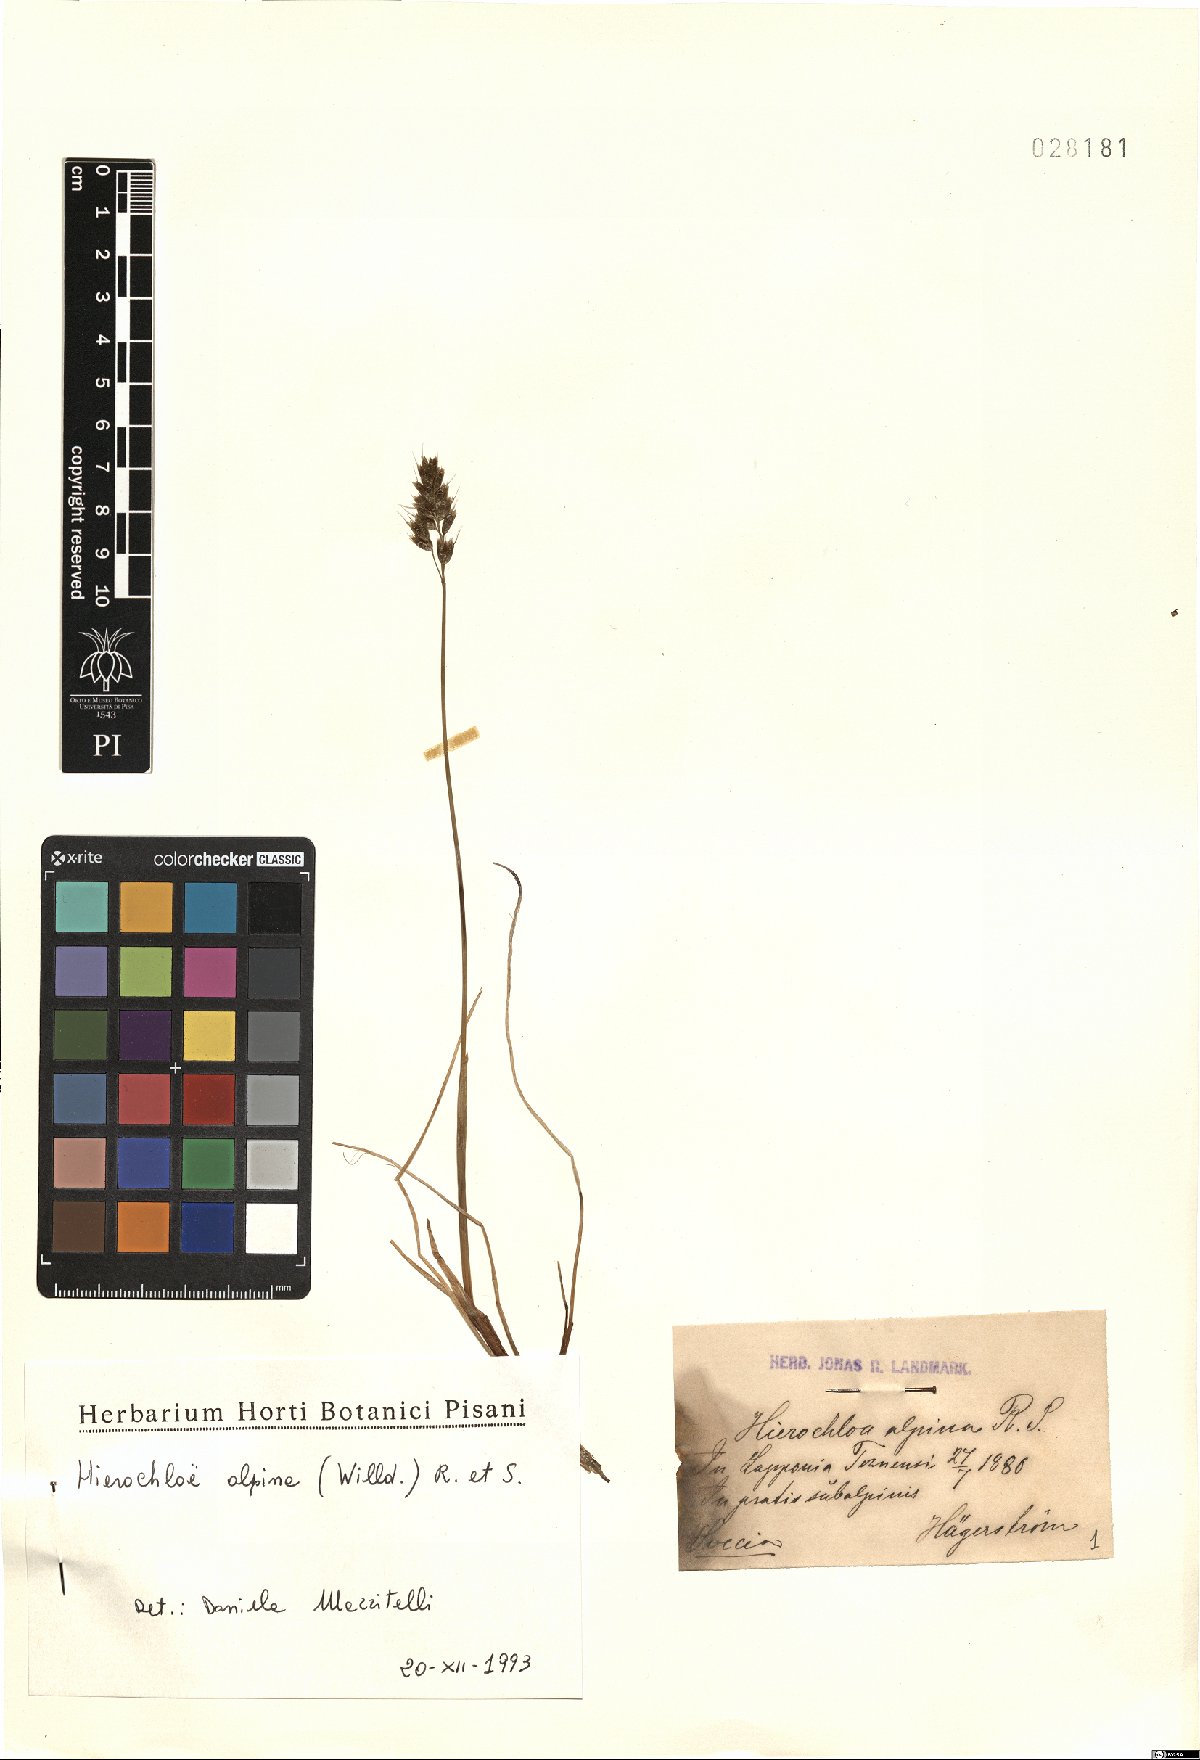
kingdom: Plantae
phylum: Tracheophyta
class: Liliopsida
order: Poales
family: Poaceae
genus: Anthoxanthum
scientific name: Anthoxanthum monticola
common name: Alpine sweetgrass
